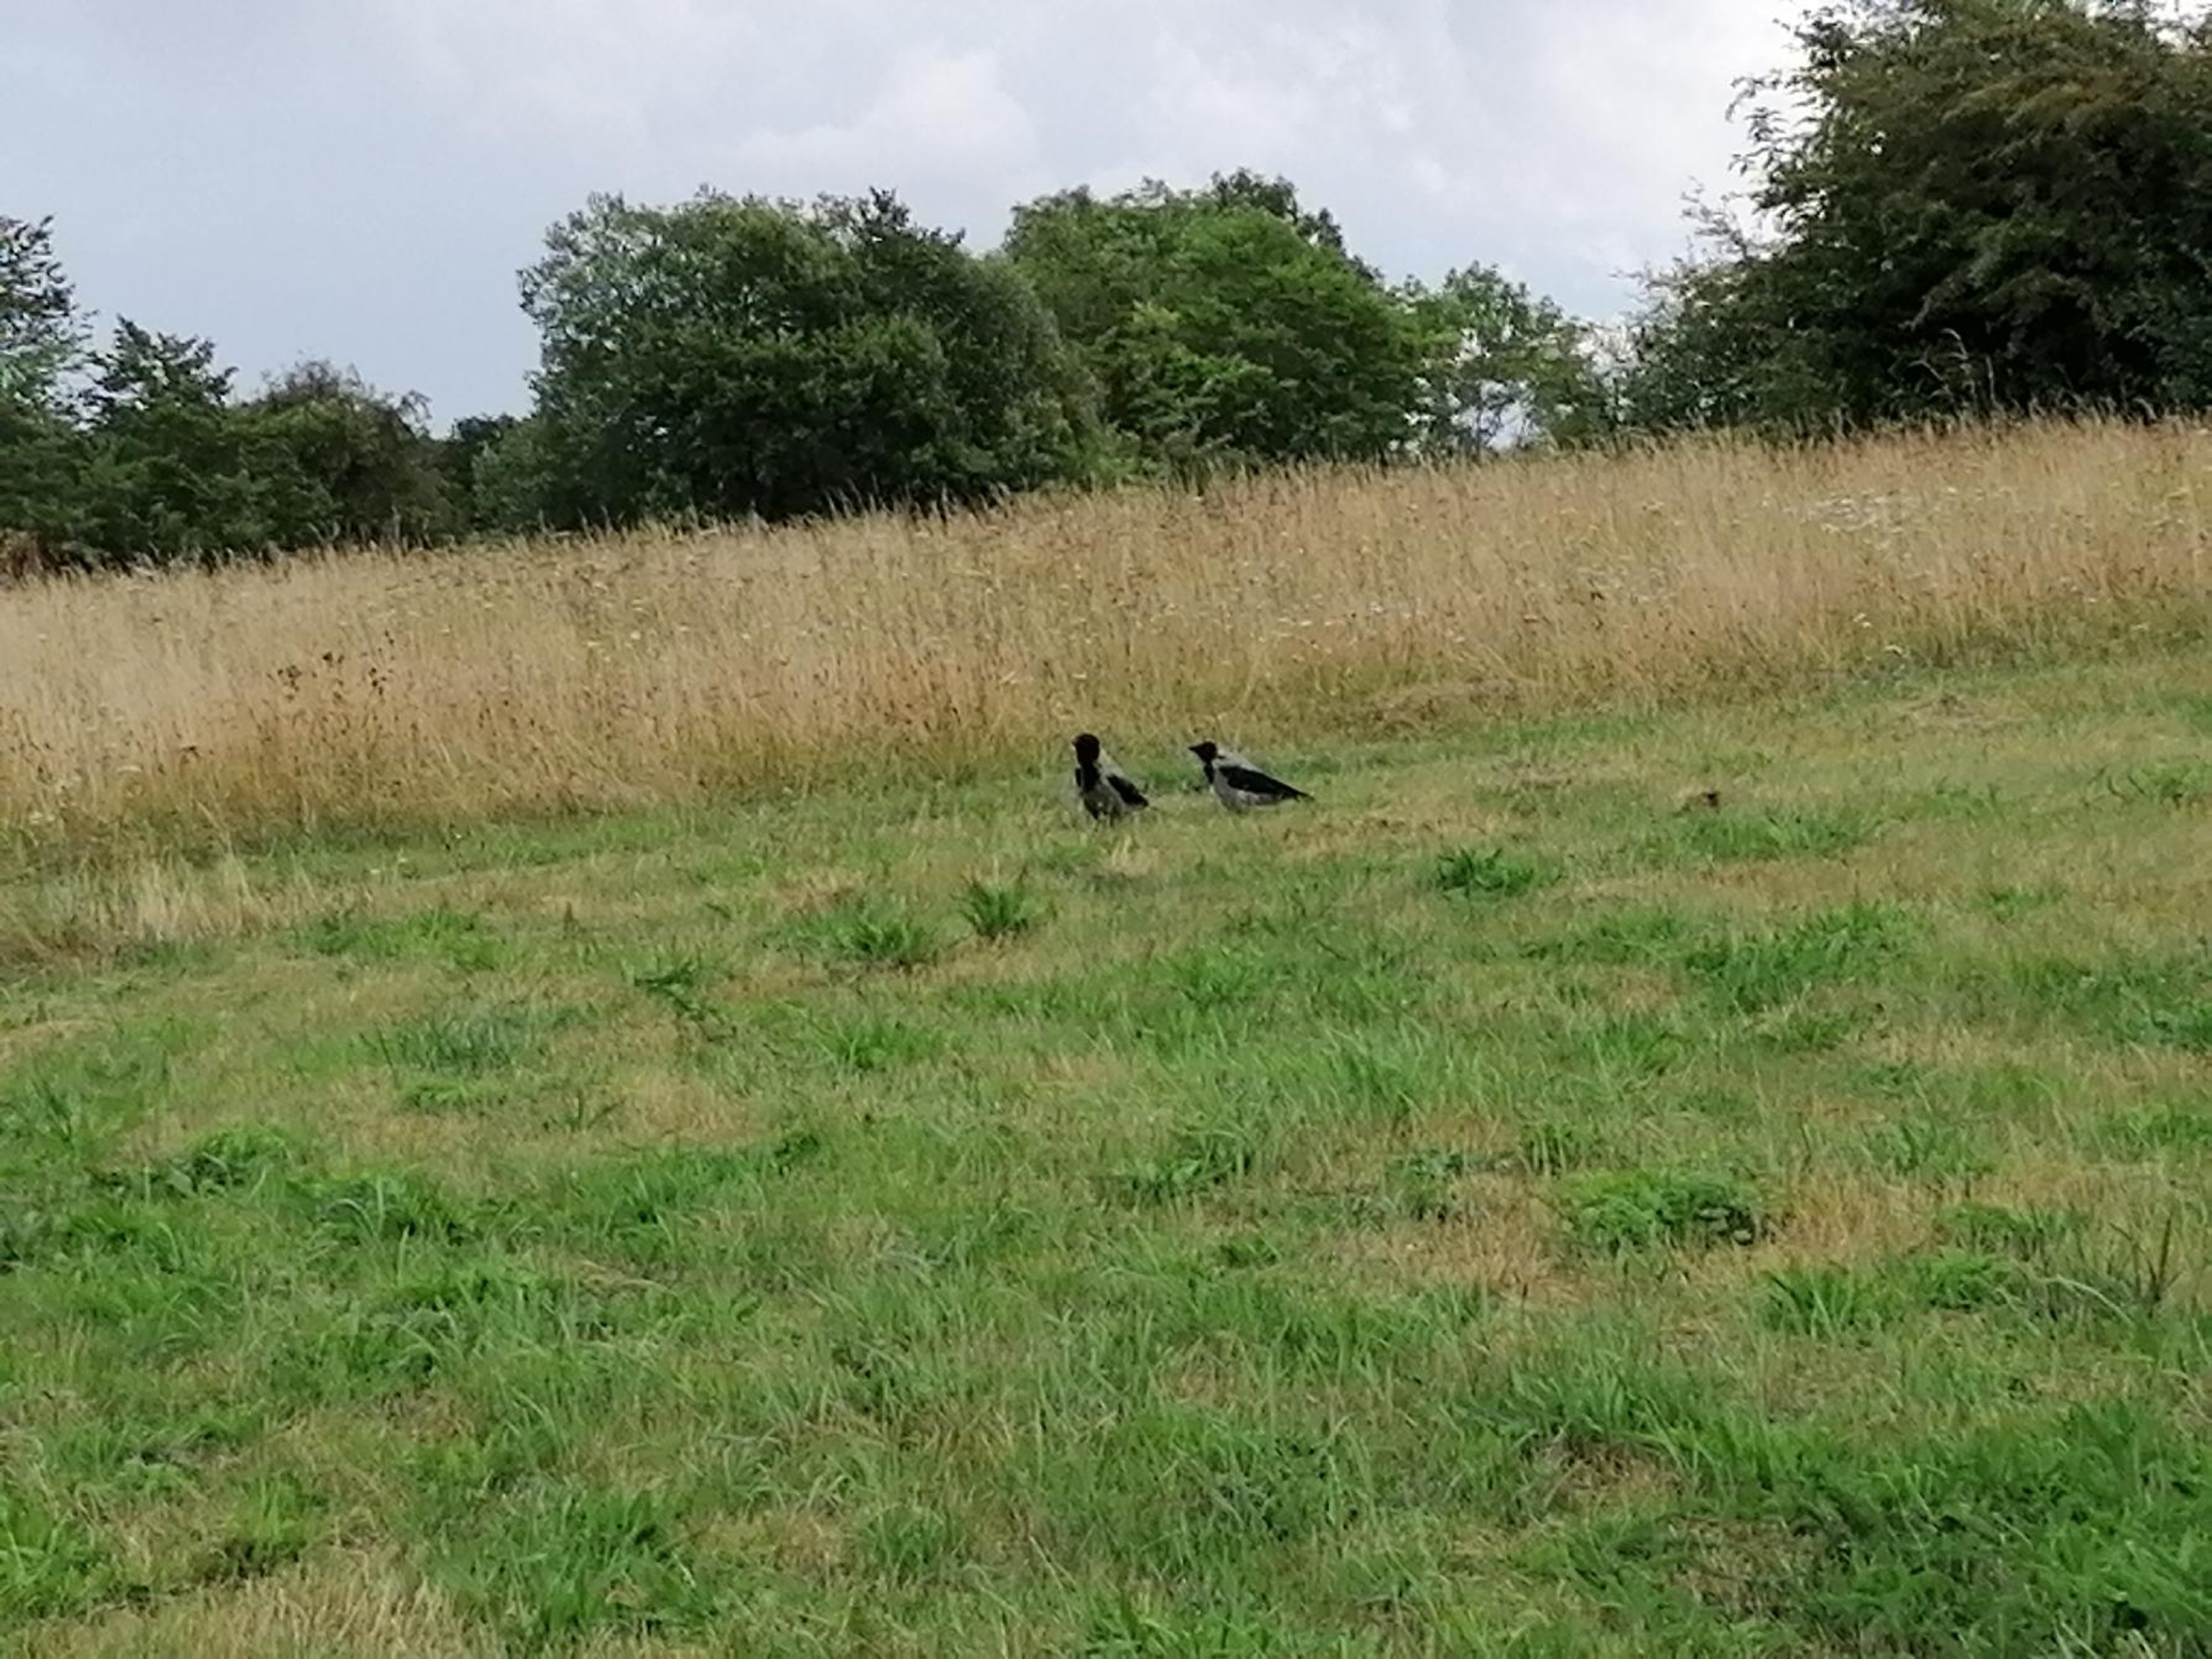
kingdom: Animalia
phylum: Chordata
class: Aves
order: Passeriformes
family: Corvidae
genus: Corvus
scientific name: Corvus cornix
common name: Gråkrage
